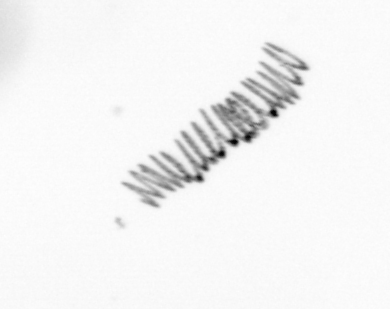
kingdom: Chromista
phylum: Ochrophyta
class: Bacillariophyceae
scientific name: Bacillariophyceae
